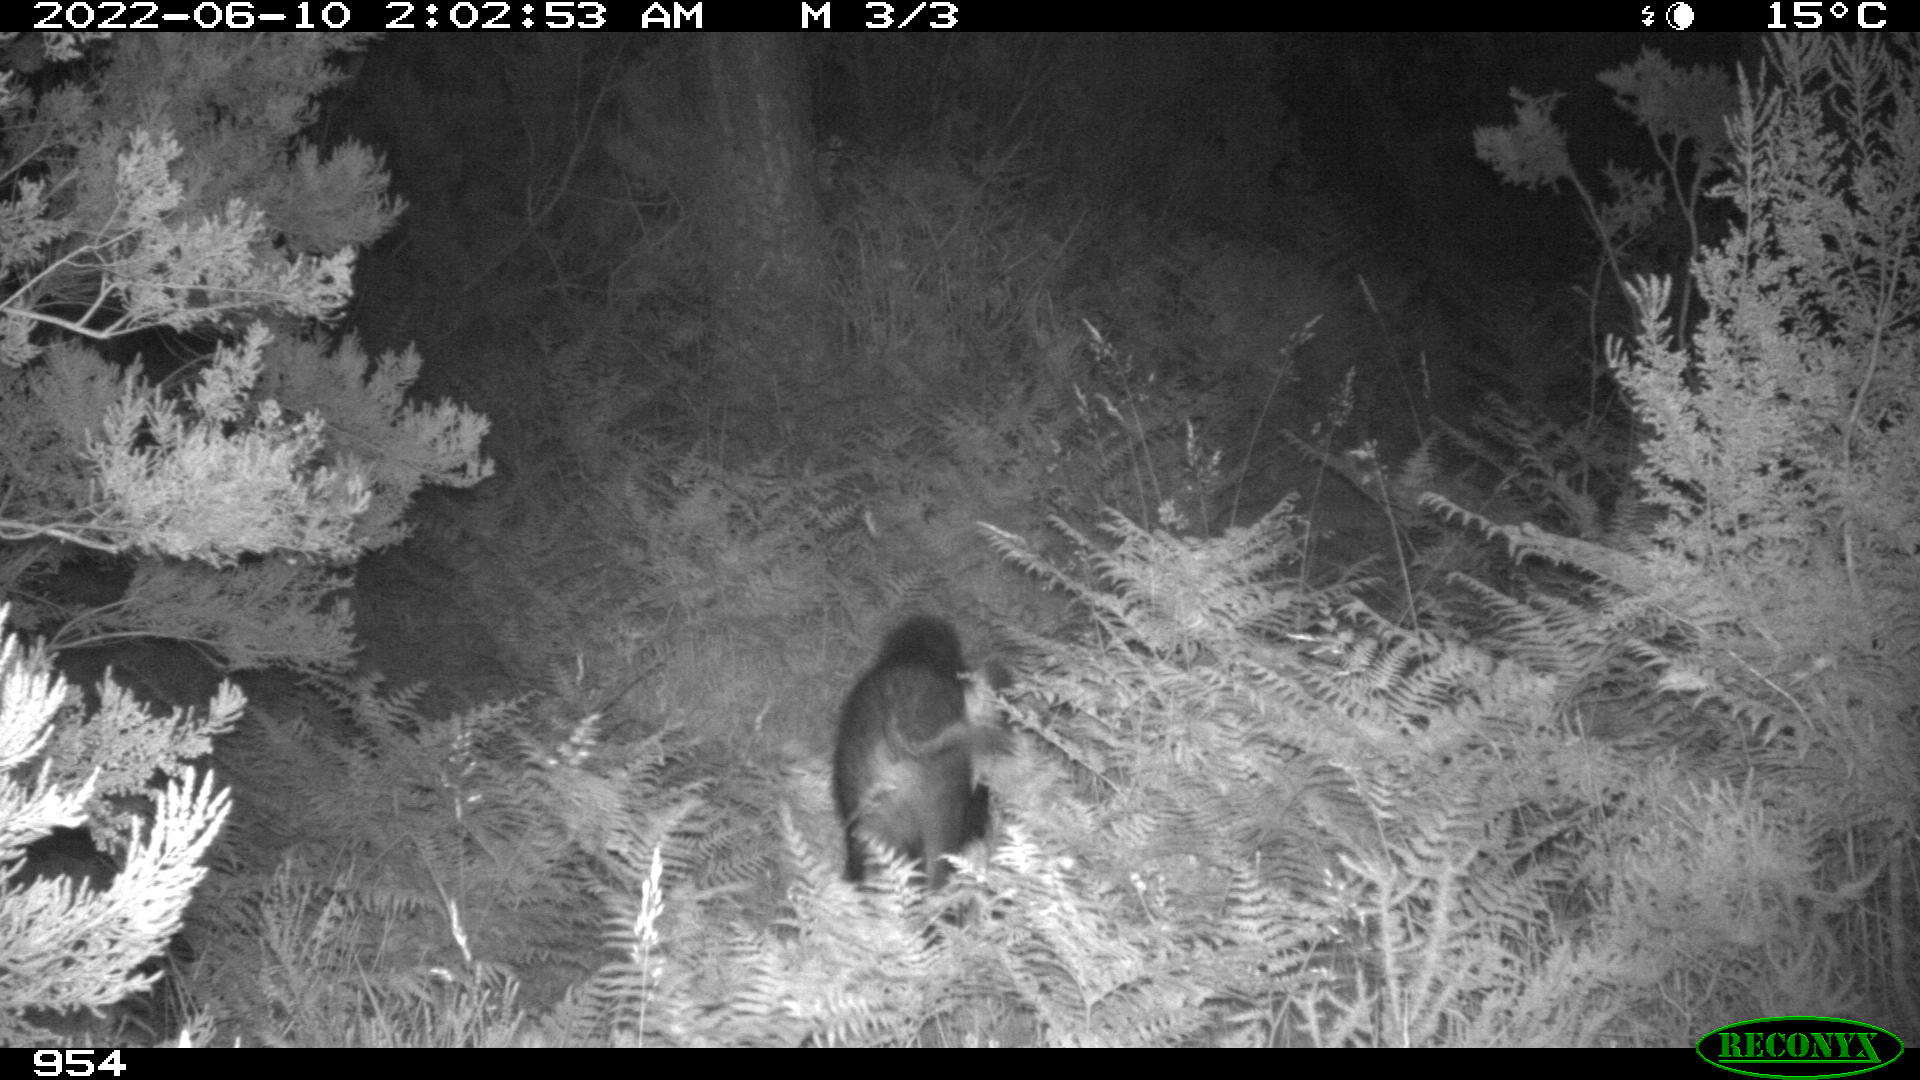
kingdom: Animalia
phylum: Chordata
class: Mammalia
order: Artiodactyla
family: Suidae
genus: Sus
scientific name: Sus scrofa
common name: Wild boar
